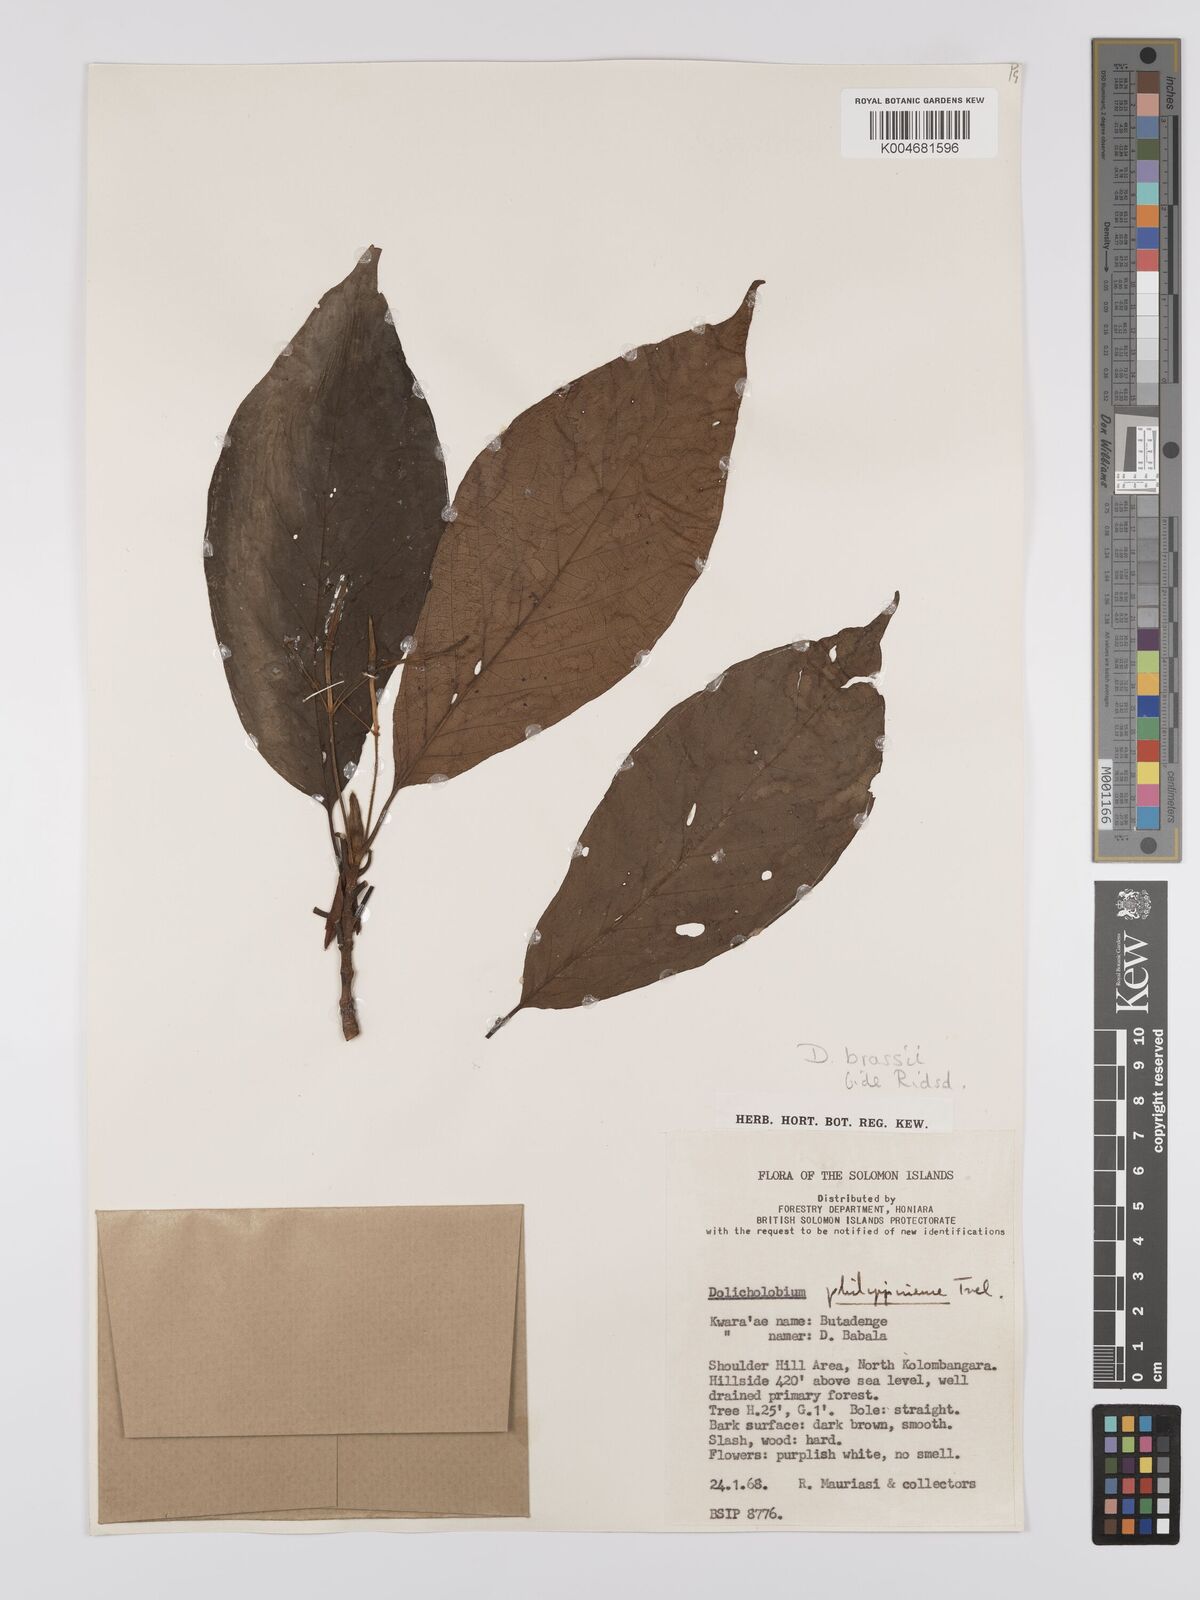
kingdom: Plantae
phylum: Tracheophyta
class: Magnoliopsida
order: Gentianales
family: Rubiaceae
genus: Dolicholobium
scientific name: Dolicholobium brassii
